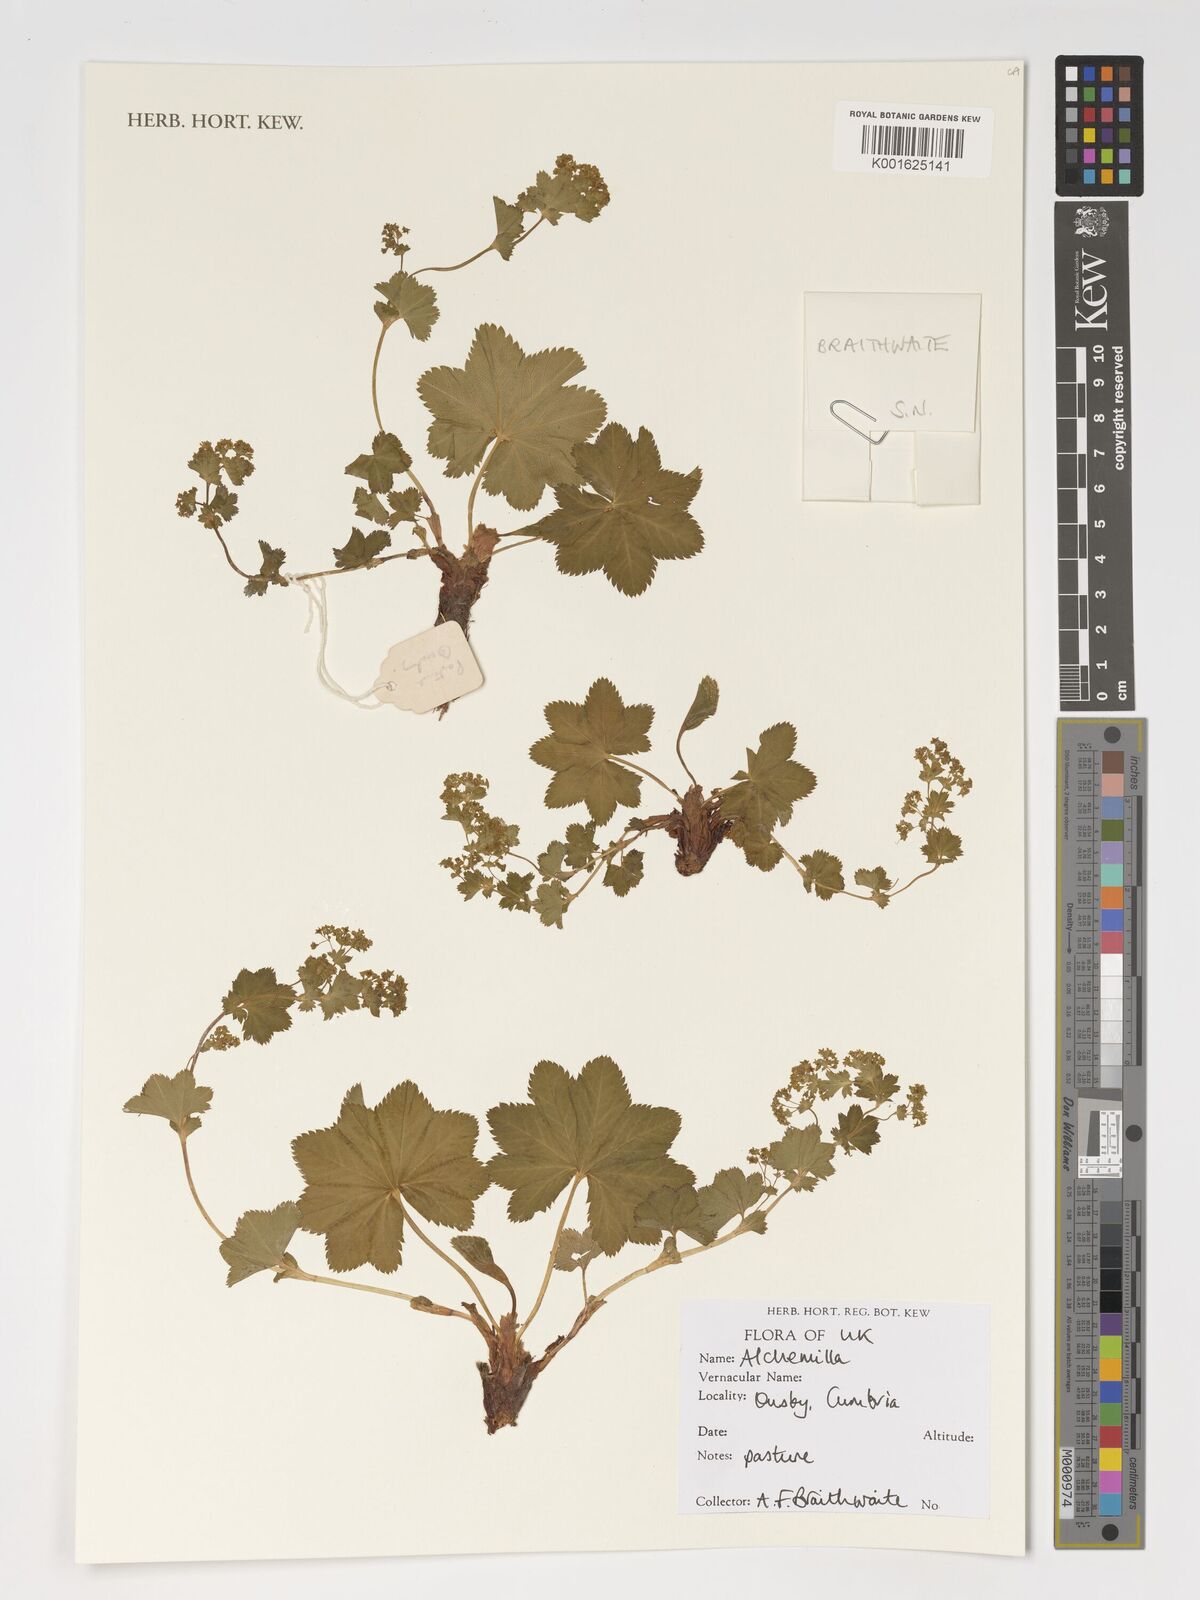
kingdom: Plantae
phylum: Tracheophyta
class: Magnoliopsida
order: Rosales
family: Rosaceae
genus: Alchemilla
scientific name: Alchemilla
